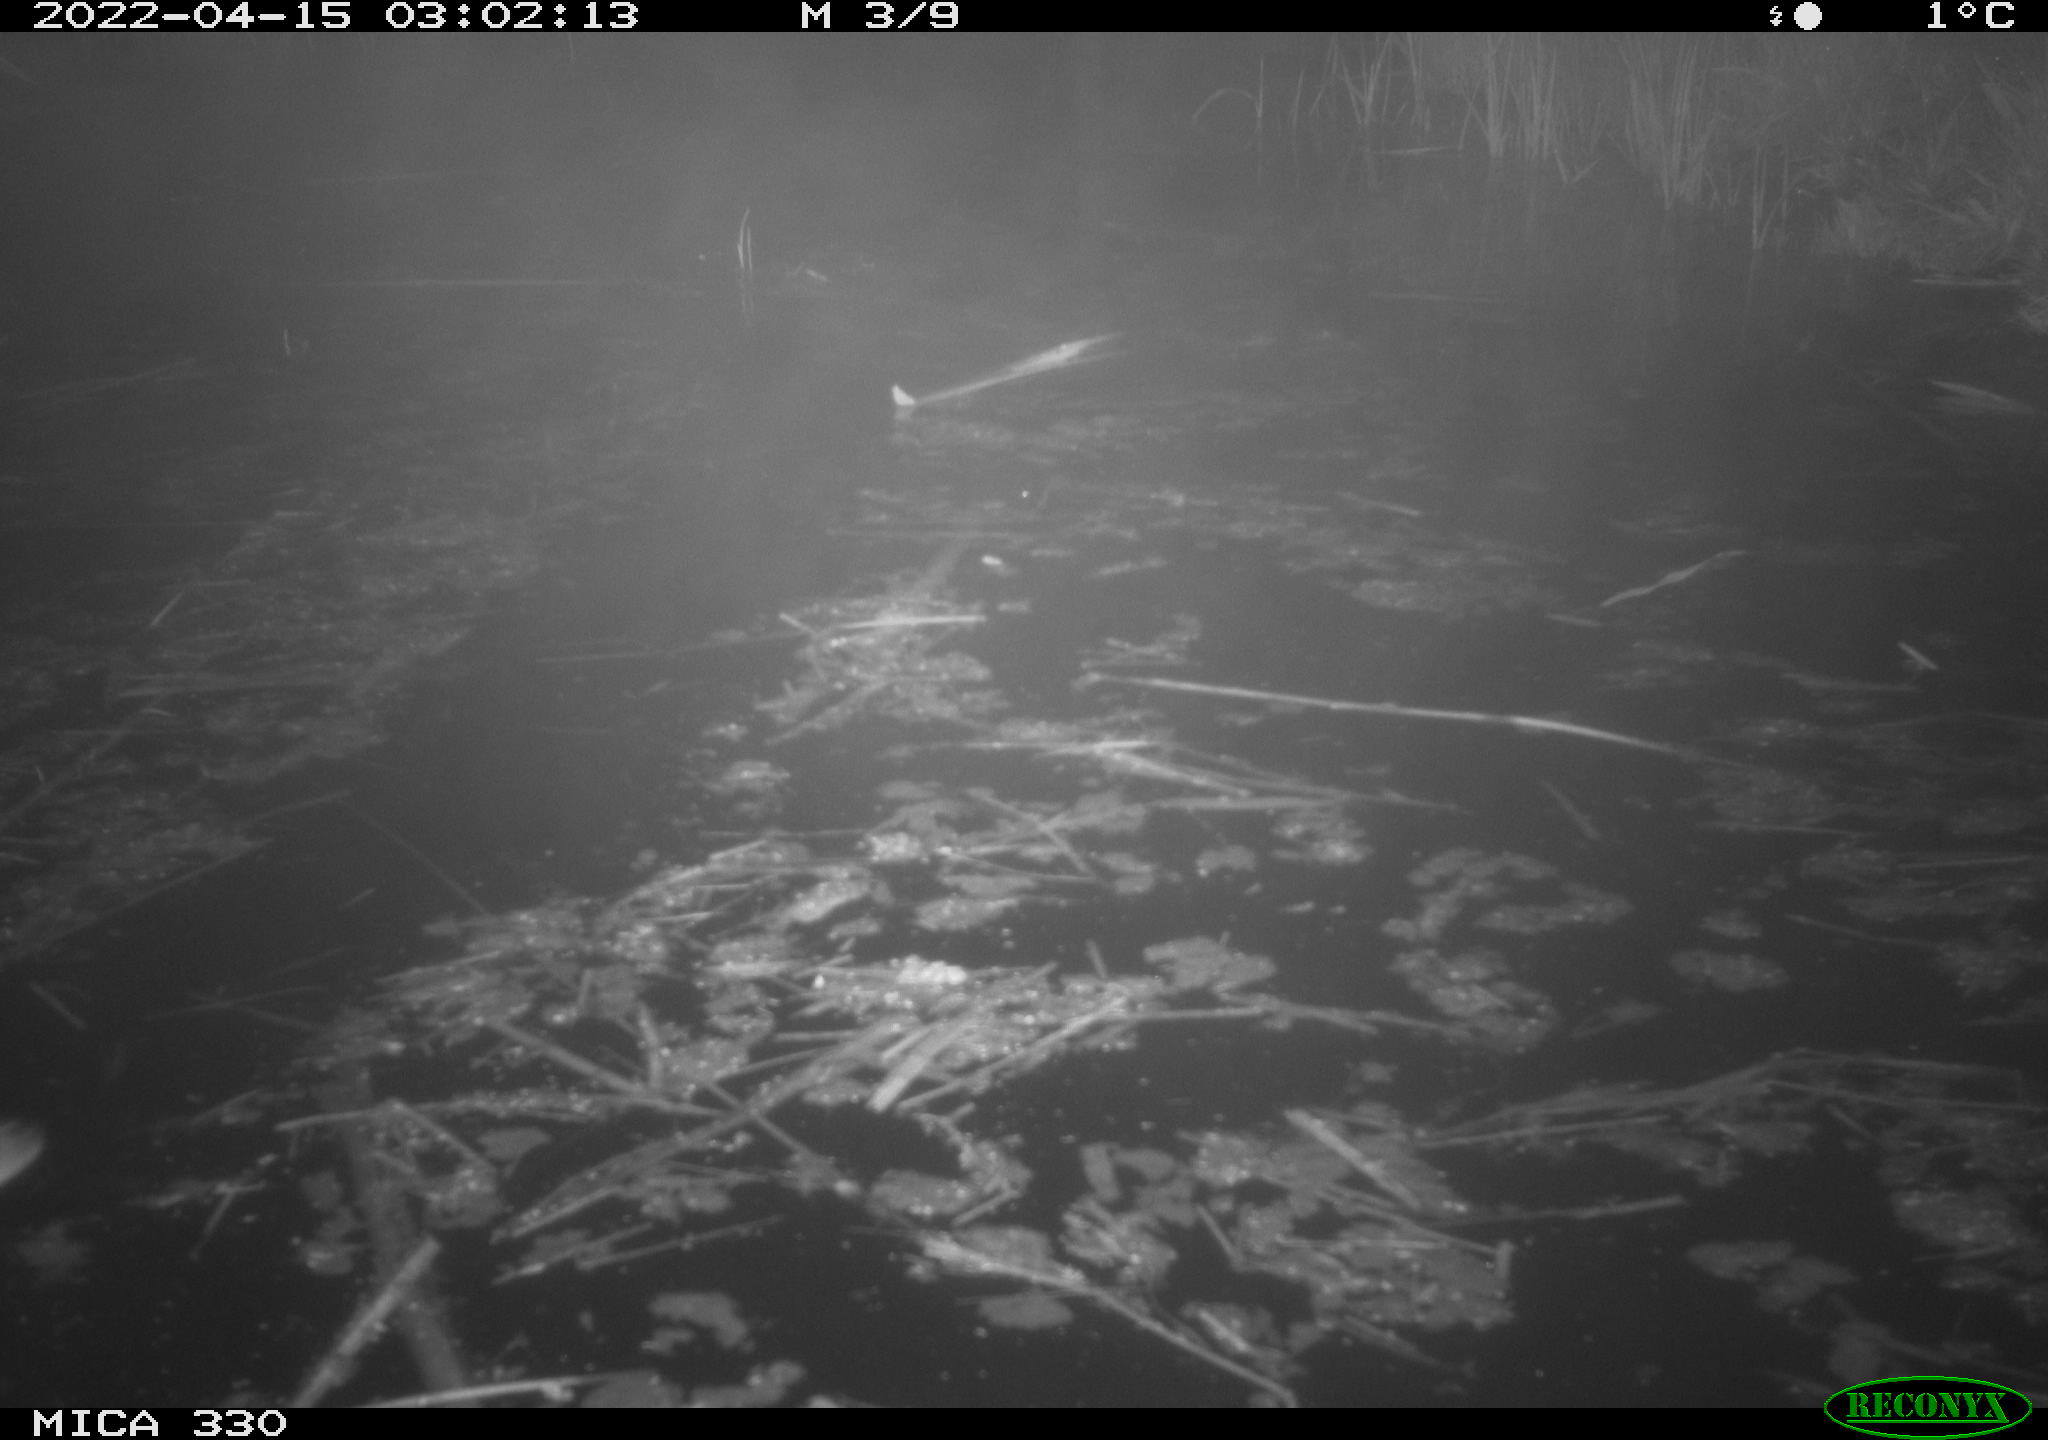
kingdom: Animalia
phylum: Chordata
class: Aves
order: Anseriformes
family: Anatidae
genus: Anas
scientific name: Anas platyrhynchos
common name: Mallard
